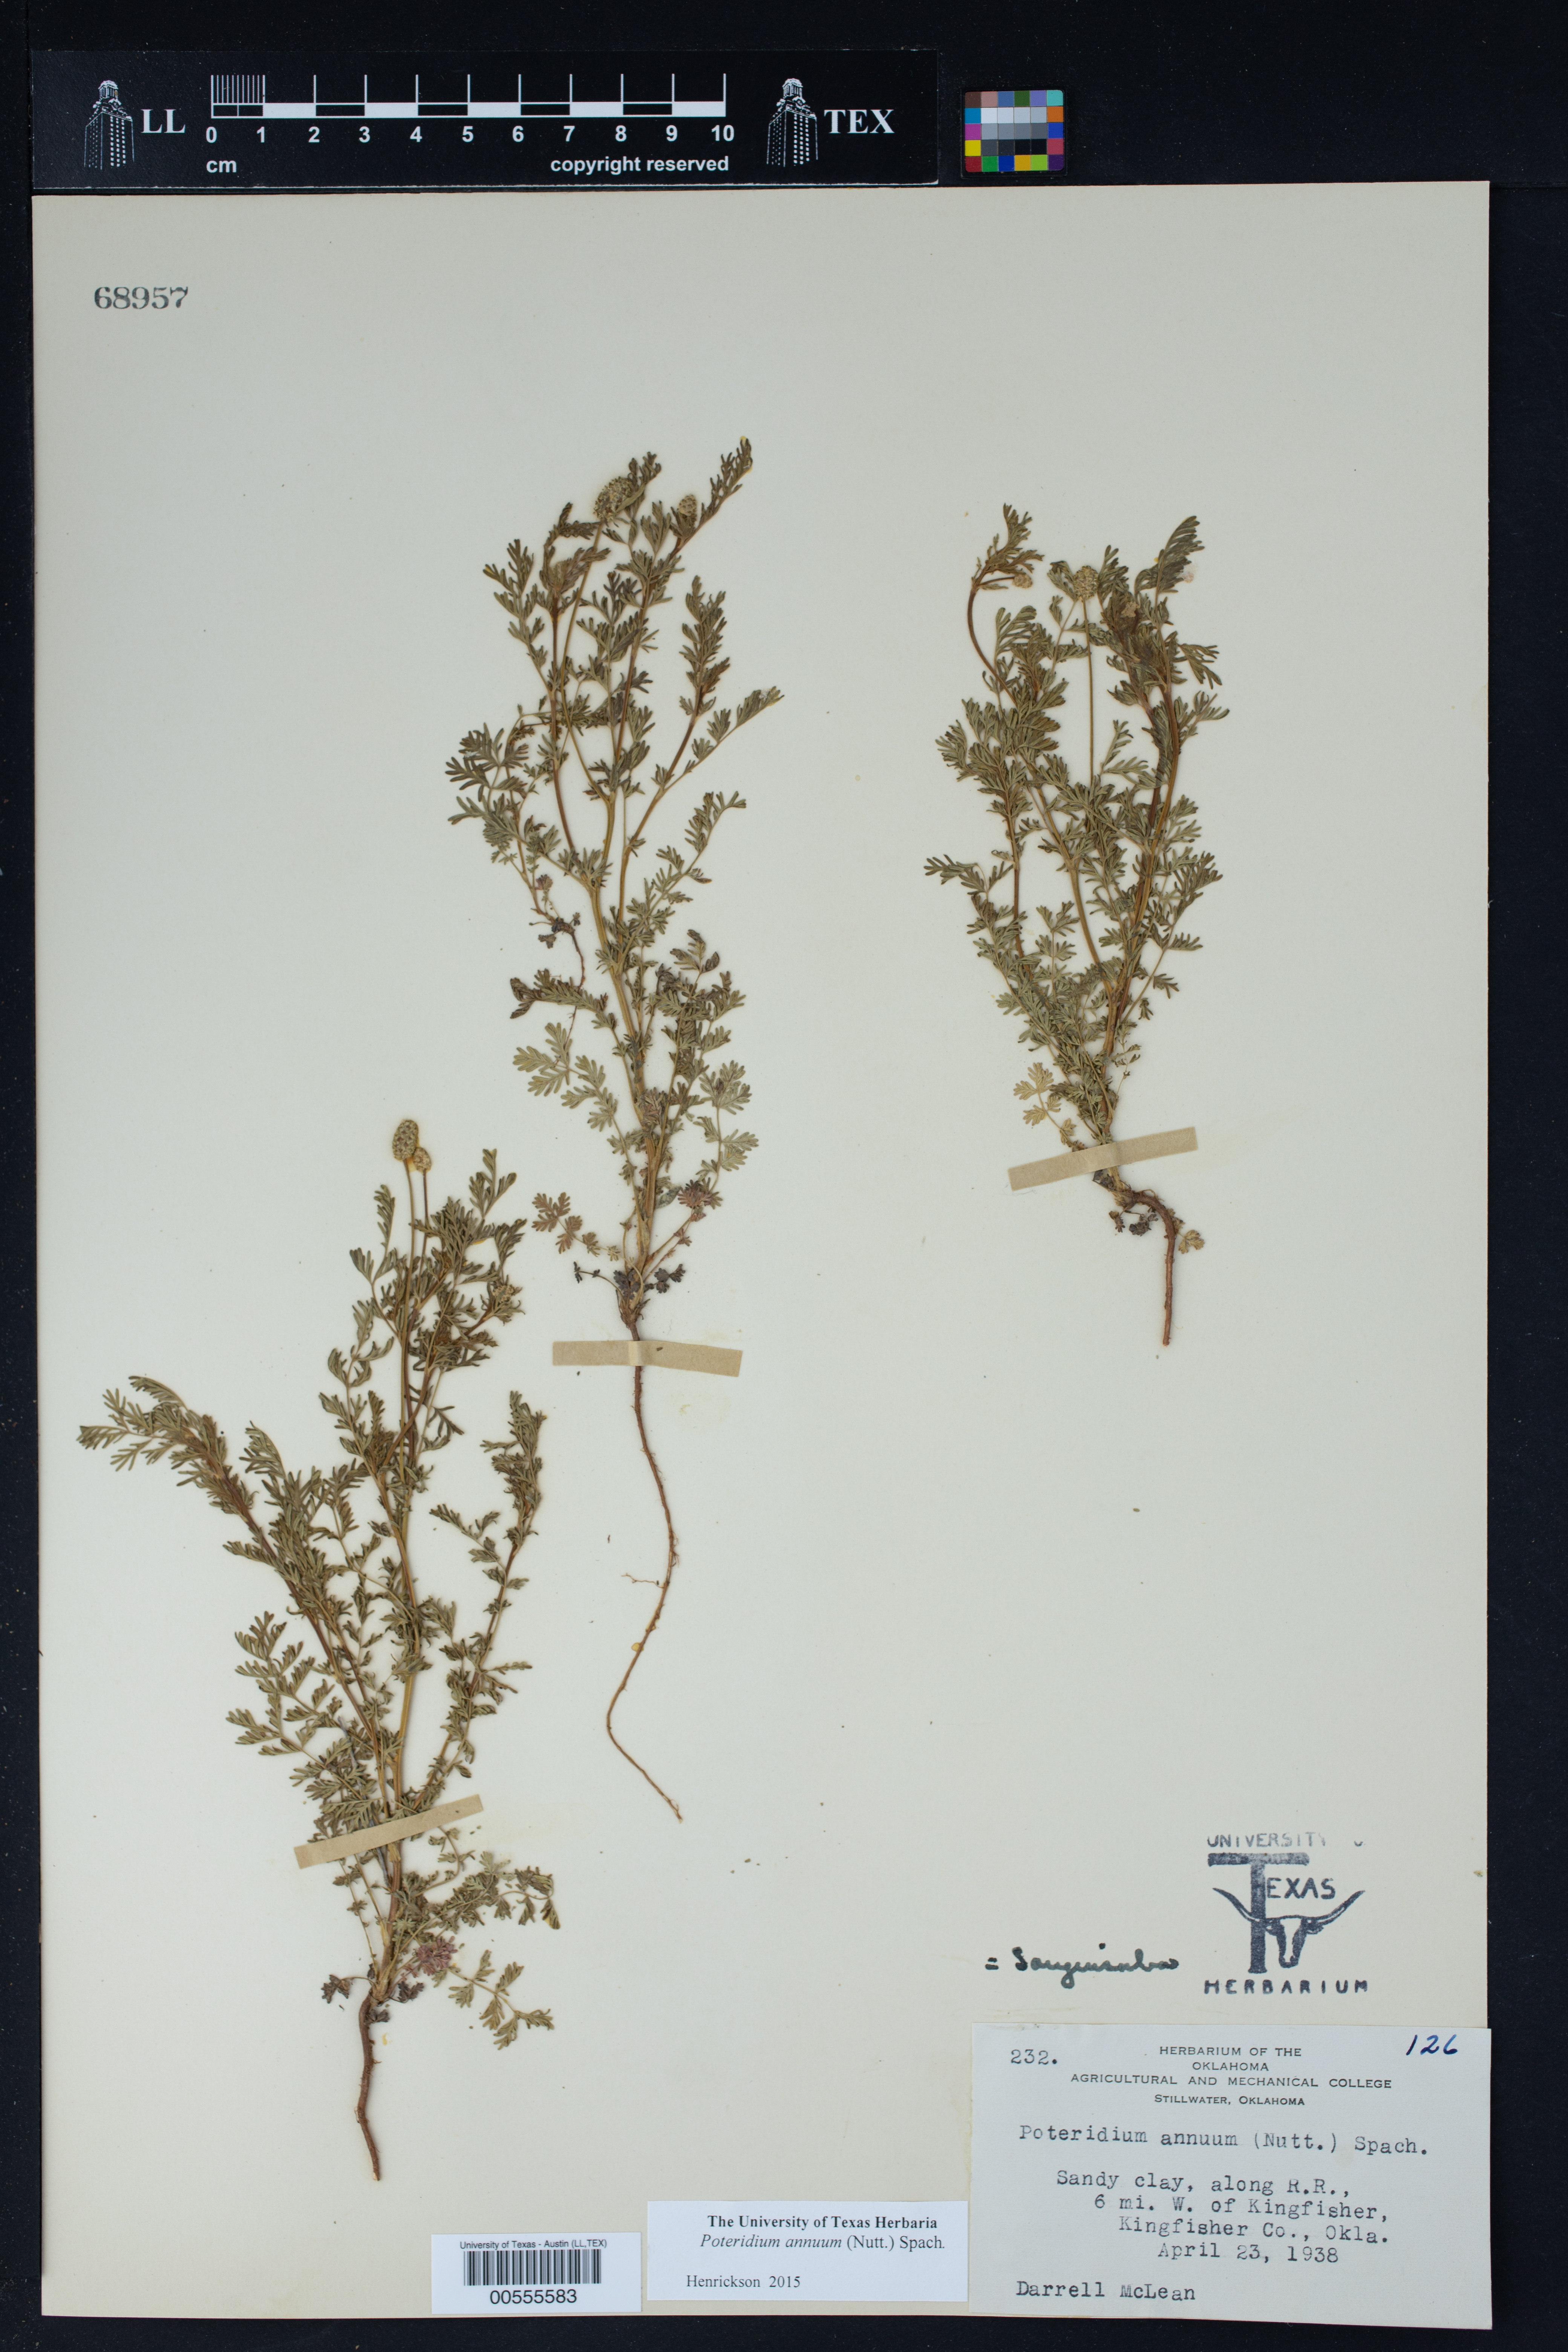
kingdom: Plantae
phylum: Tracheophyta
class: Magnoliopsida
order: Rosales
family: Rosaceae
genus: Poteridium
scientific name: Poteridium annuum
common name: Annual burnet
